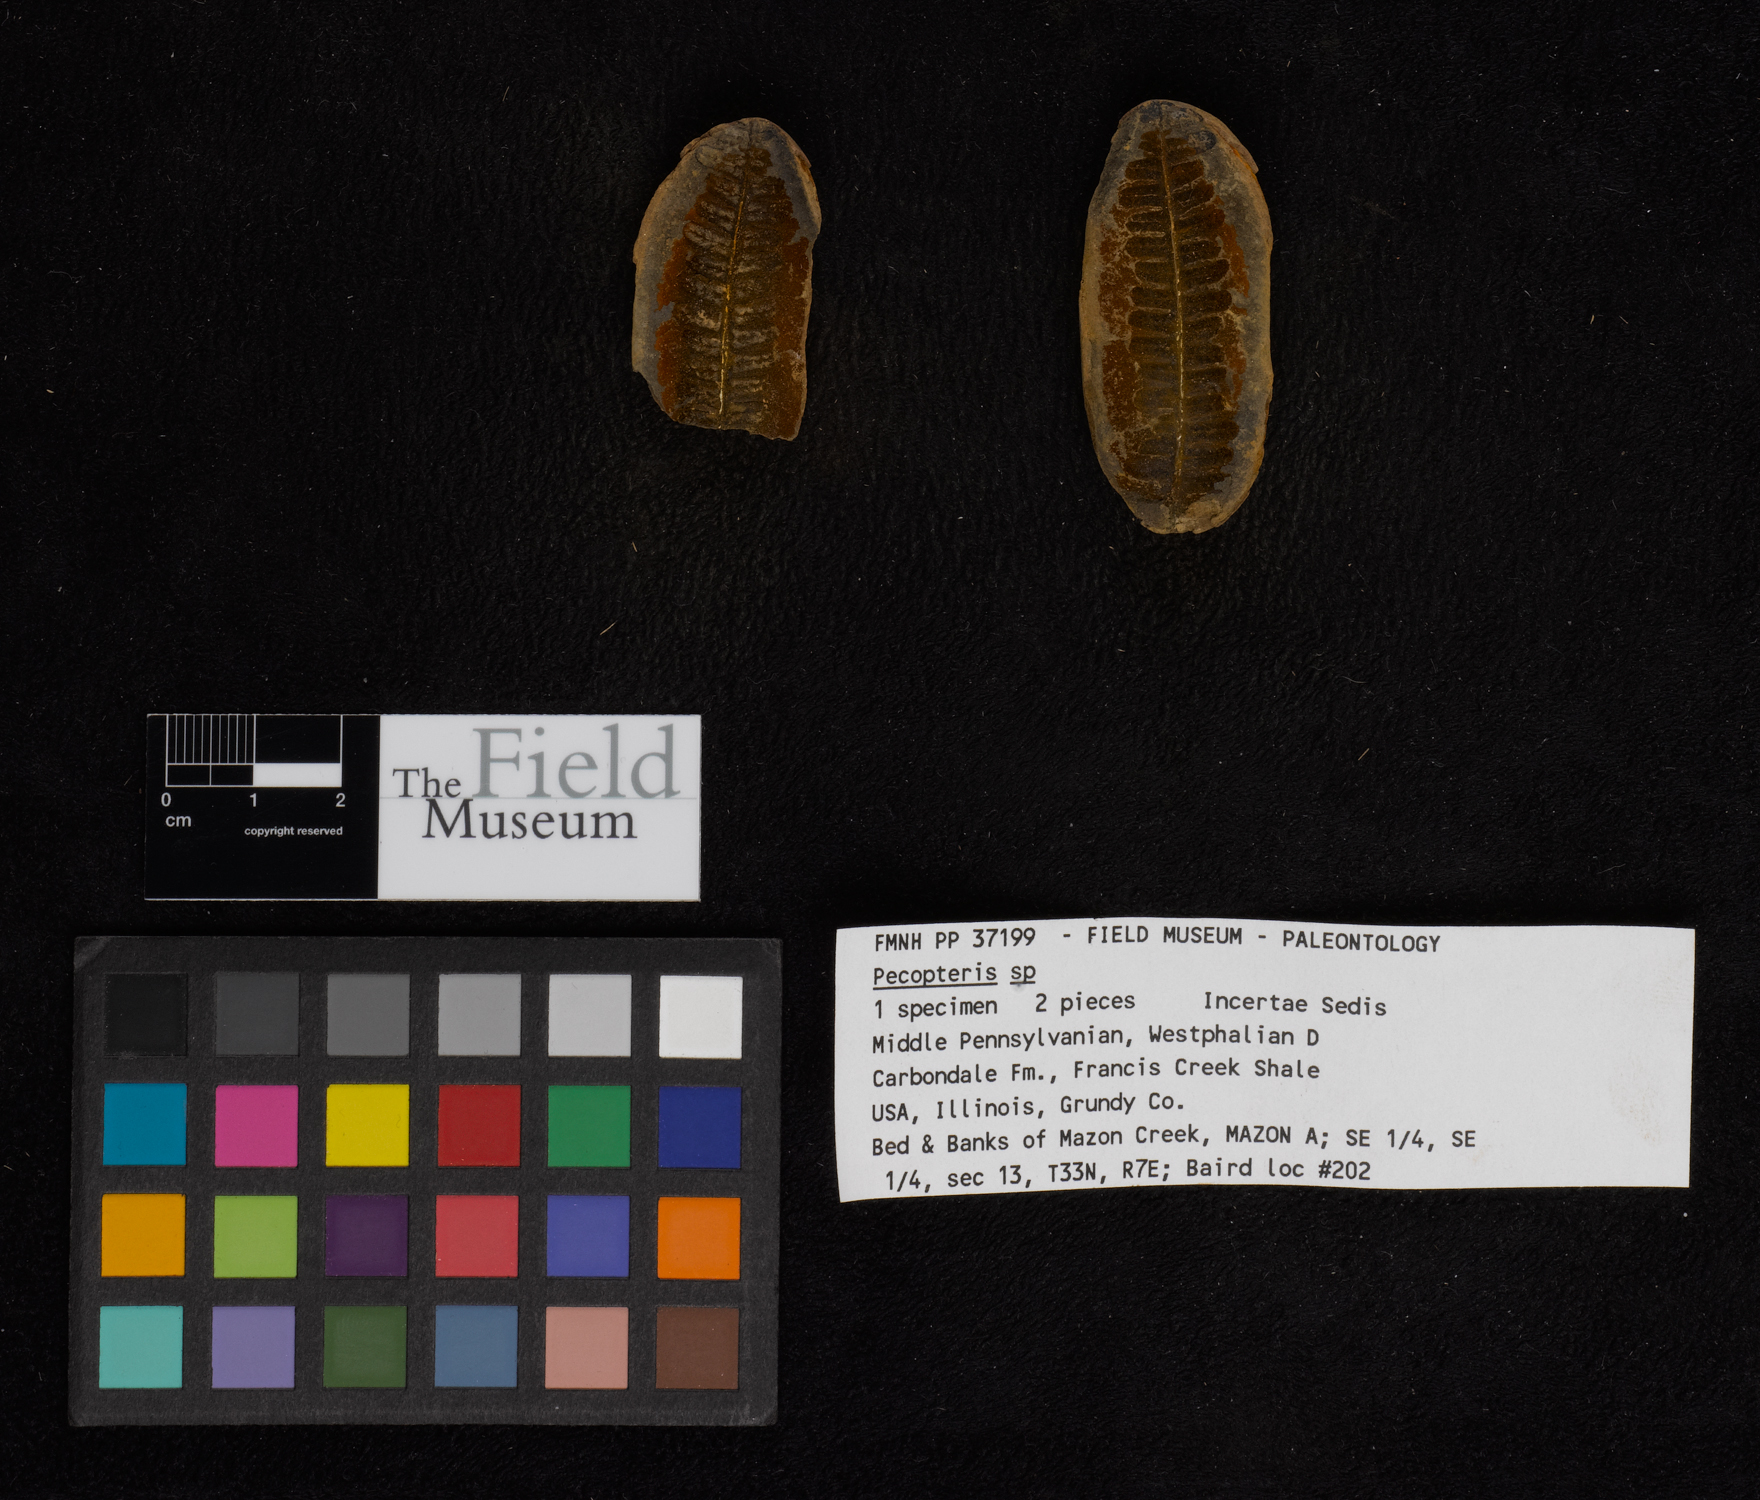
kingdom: Plantae
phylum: Tracheophyta
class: Polypodiopsida
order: Marattiales
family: Asterothecaceae
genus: Pecopteris
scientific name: Pecopteris
